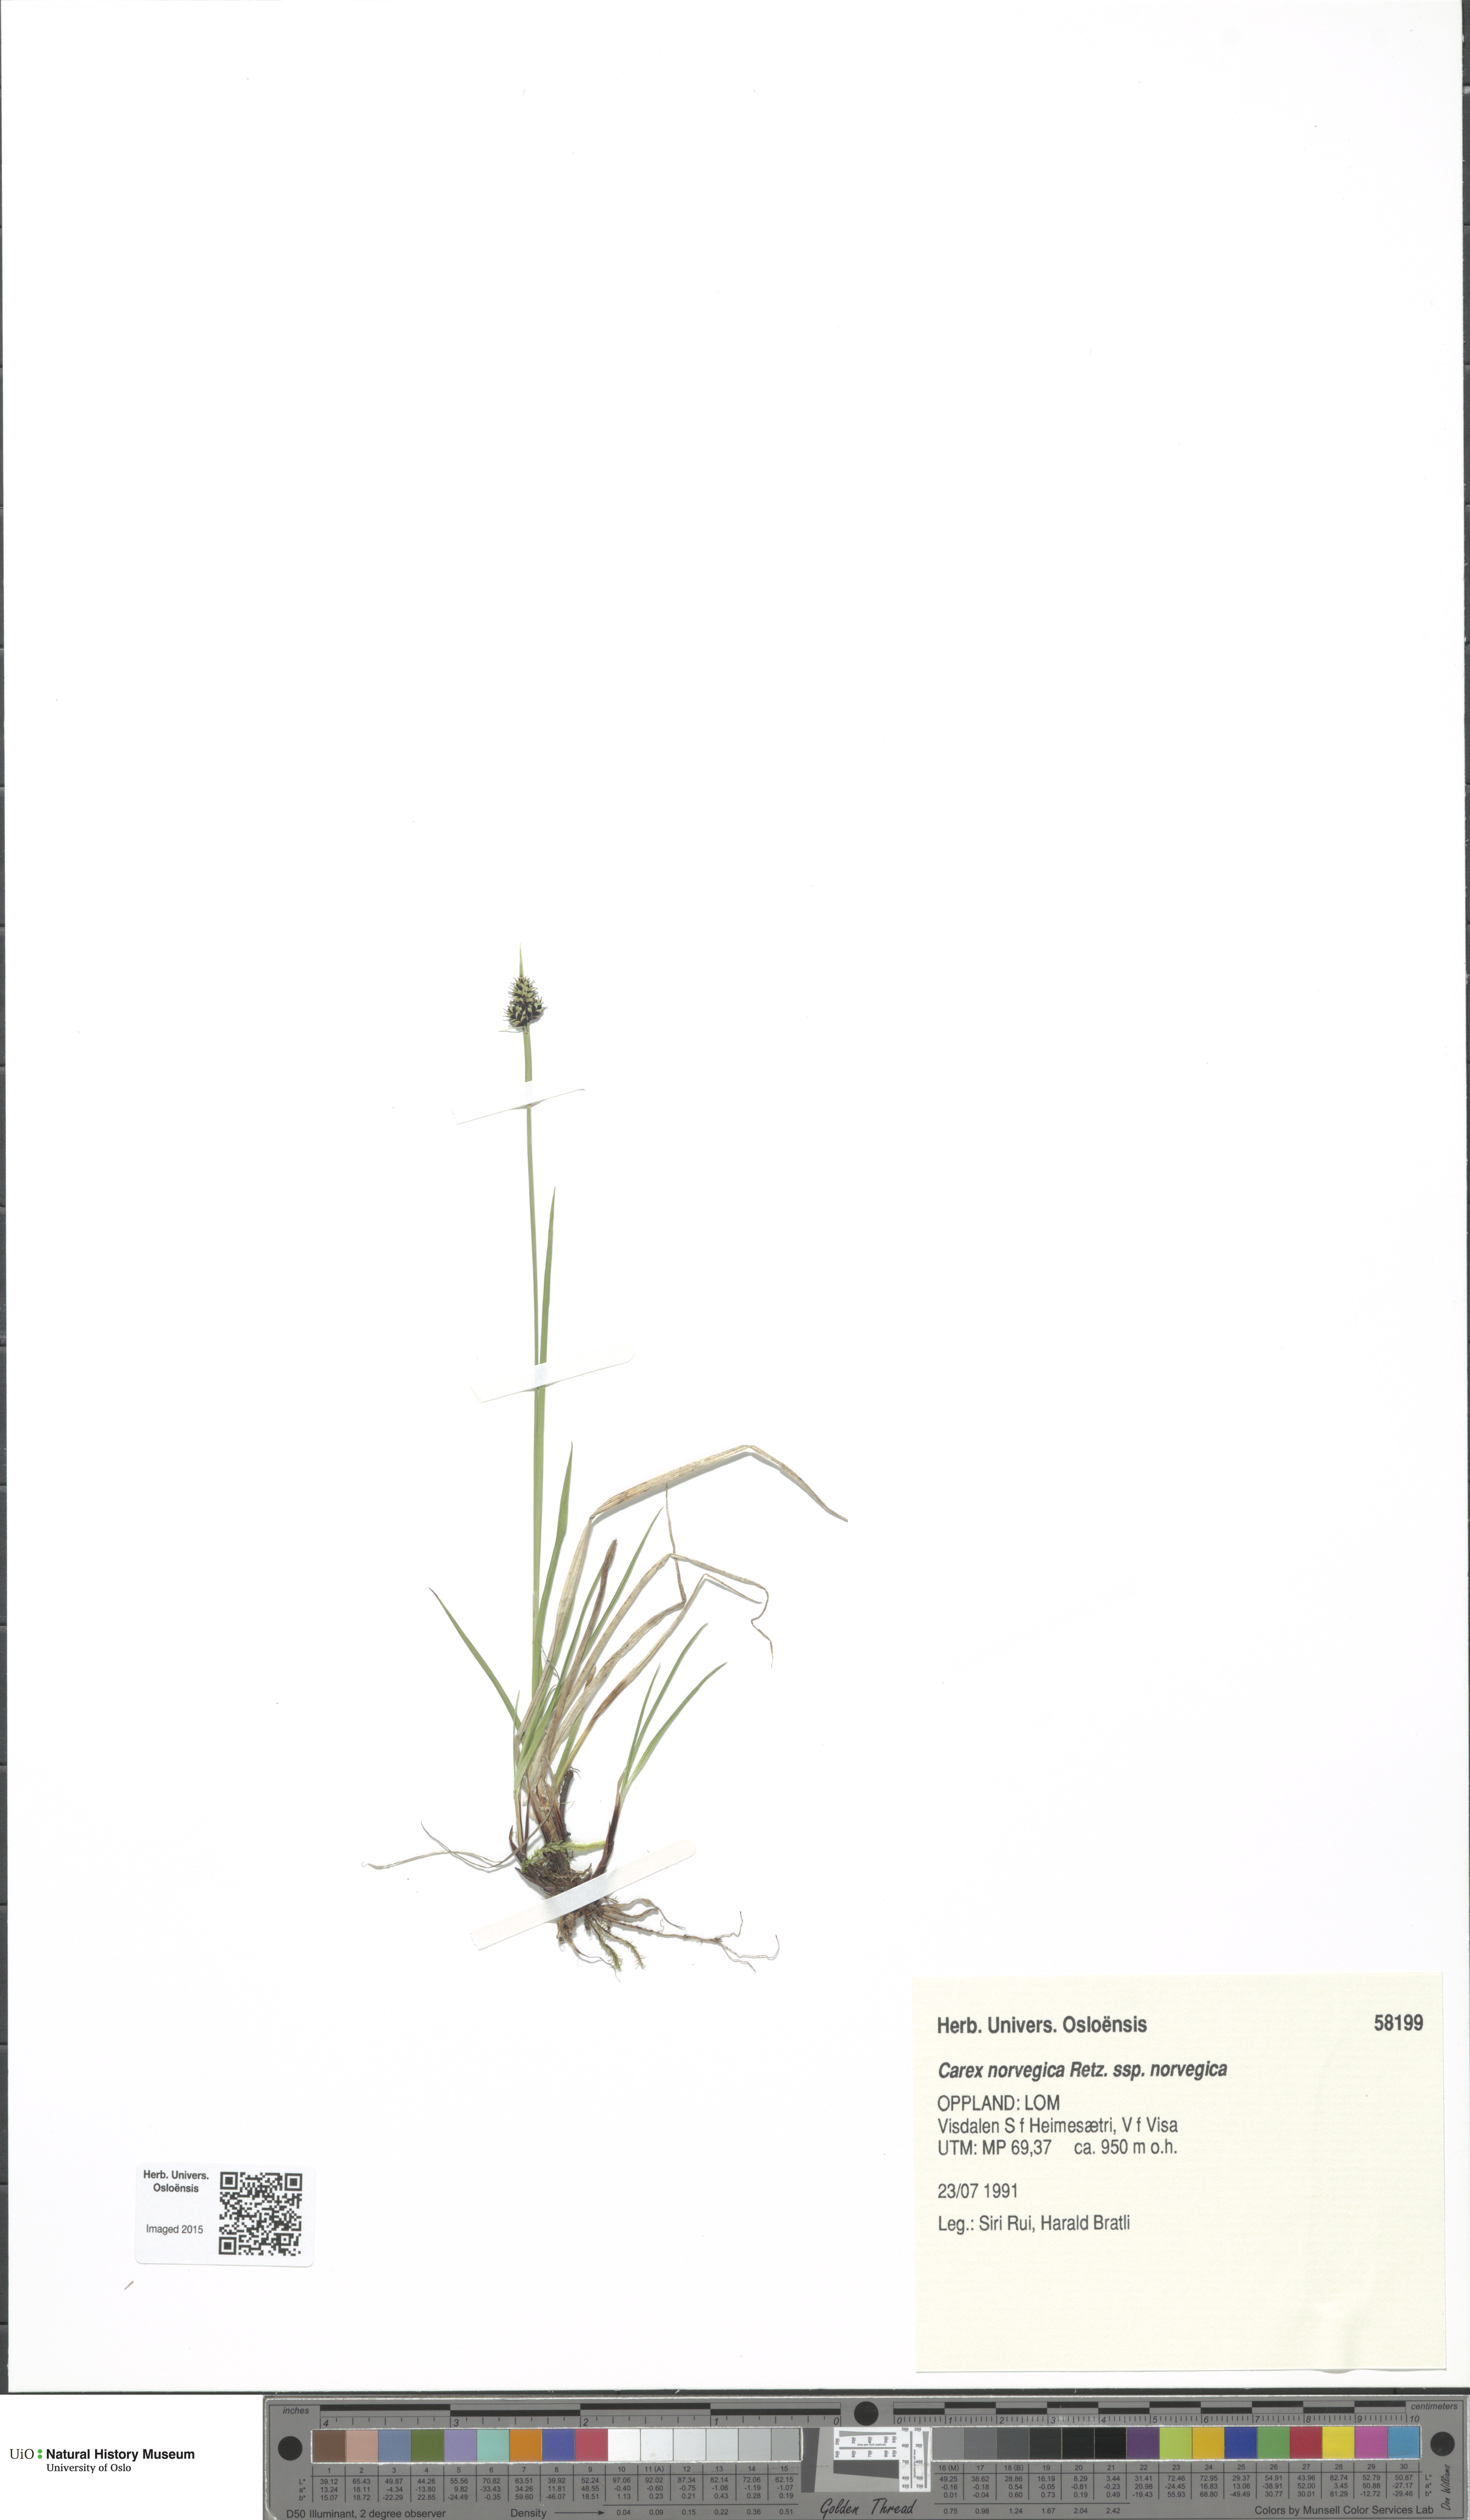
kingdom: Plantae
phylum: Tracheophyta
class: Liliopsida
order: Poales
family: Cyperaceae
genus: Carex
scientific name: Carex norvegica
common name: Close-headed alpine-sedge
